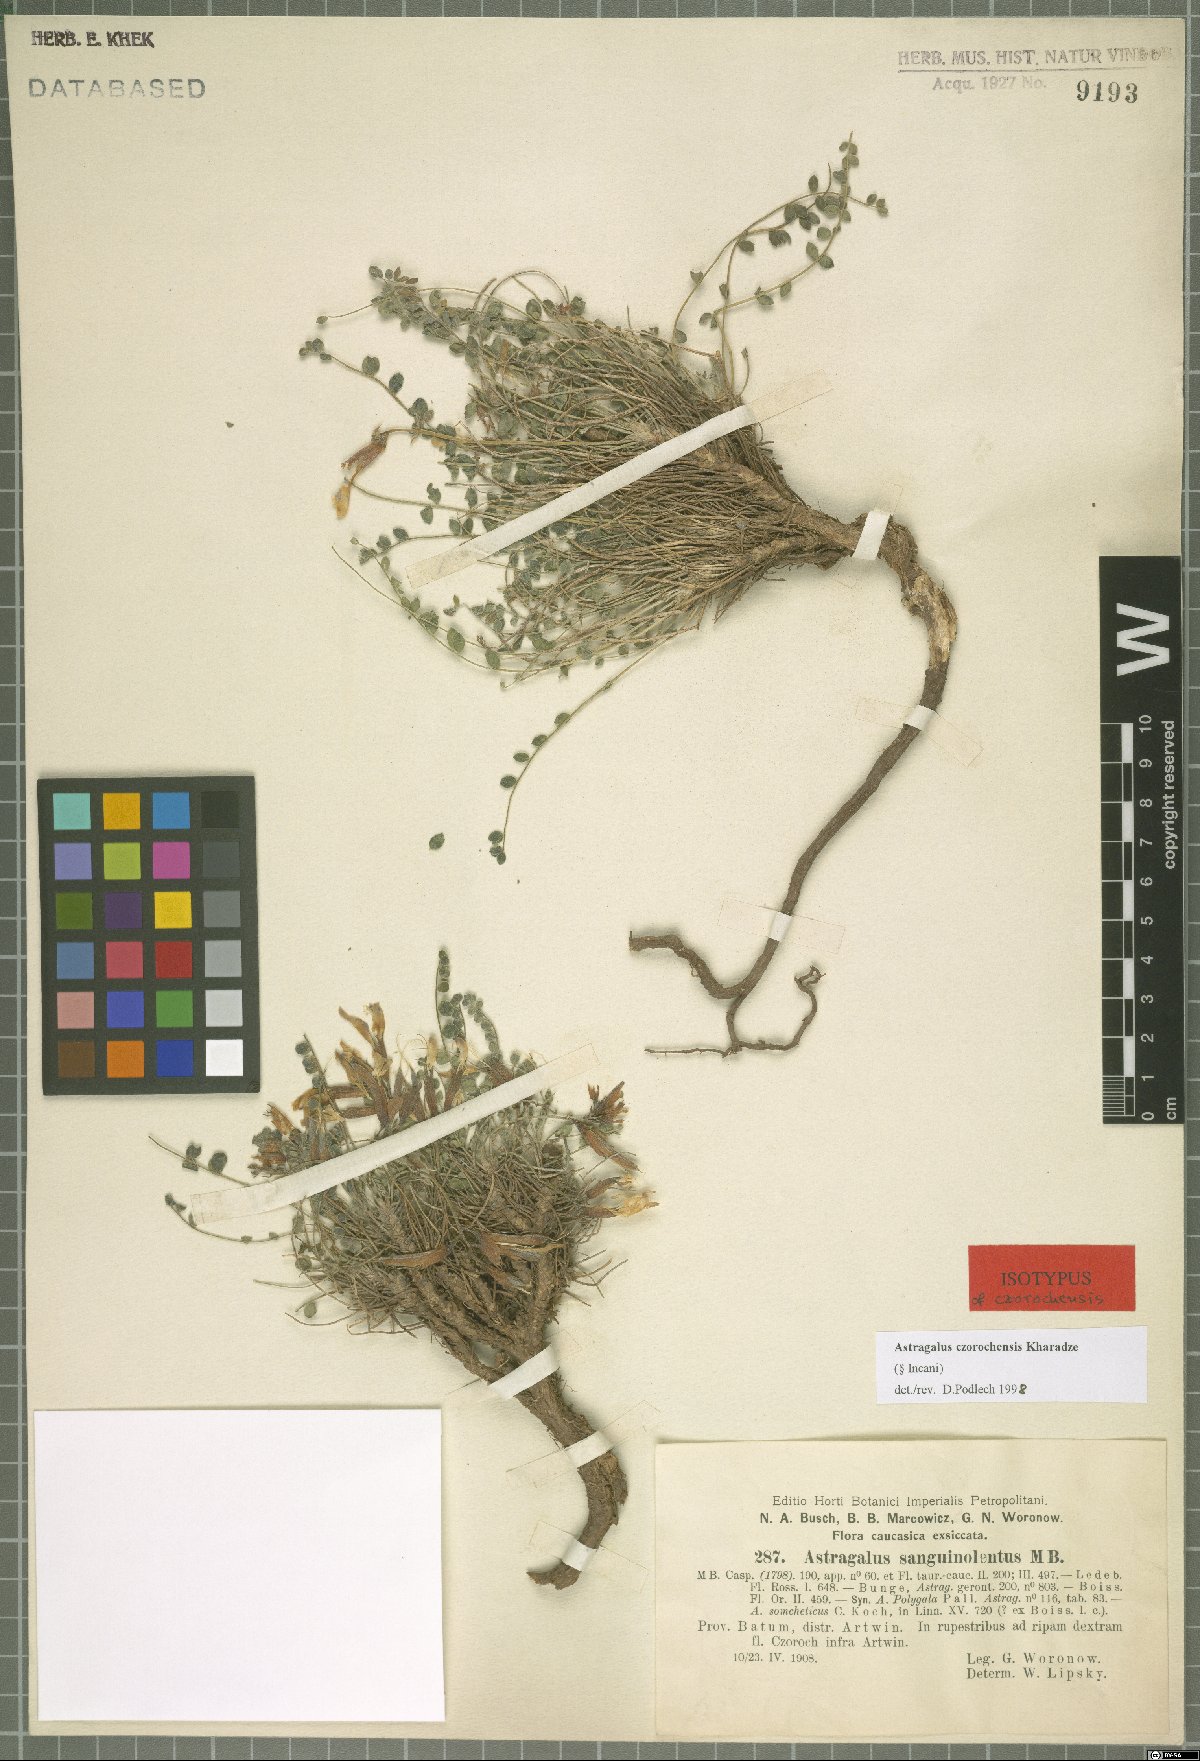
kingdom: Plantae
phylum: Tracheophyta
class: Magnoliopsida
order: Fabales
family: Fabaceae
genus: Astragalus
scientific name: Astragalus czorochensis
